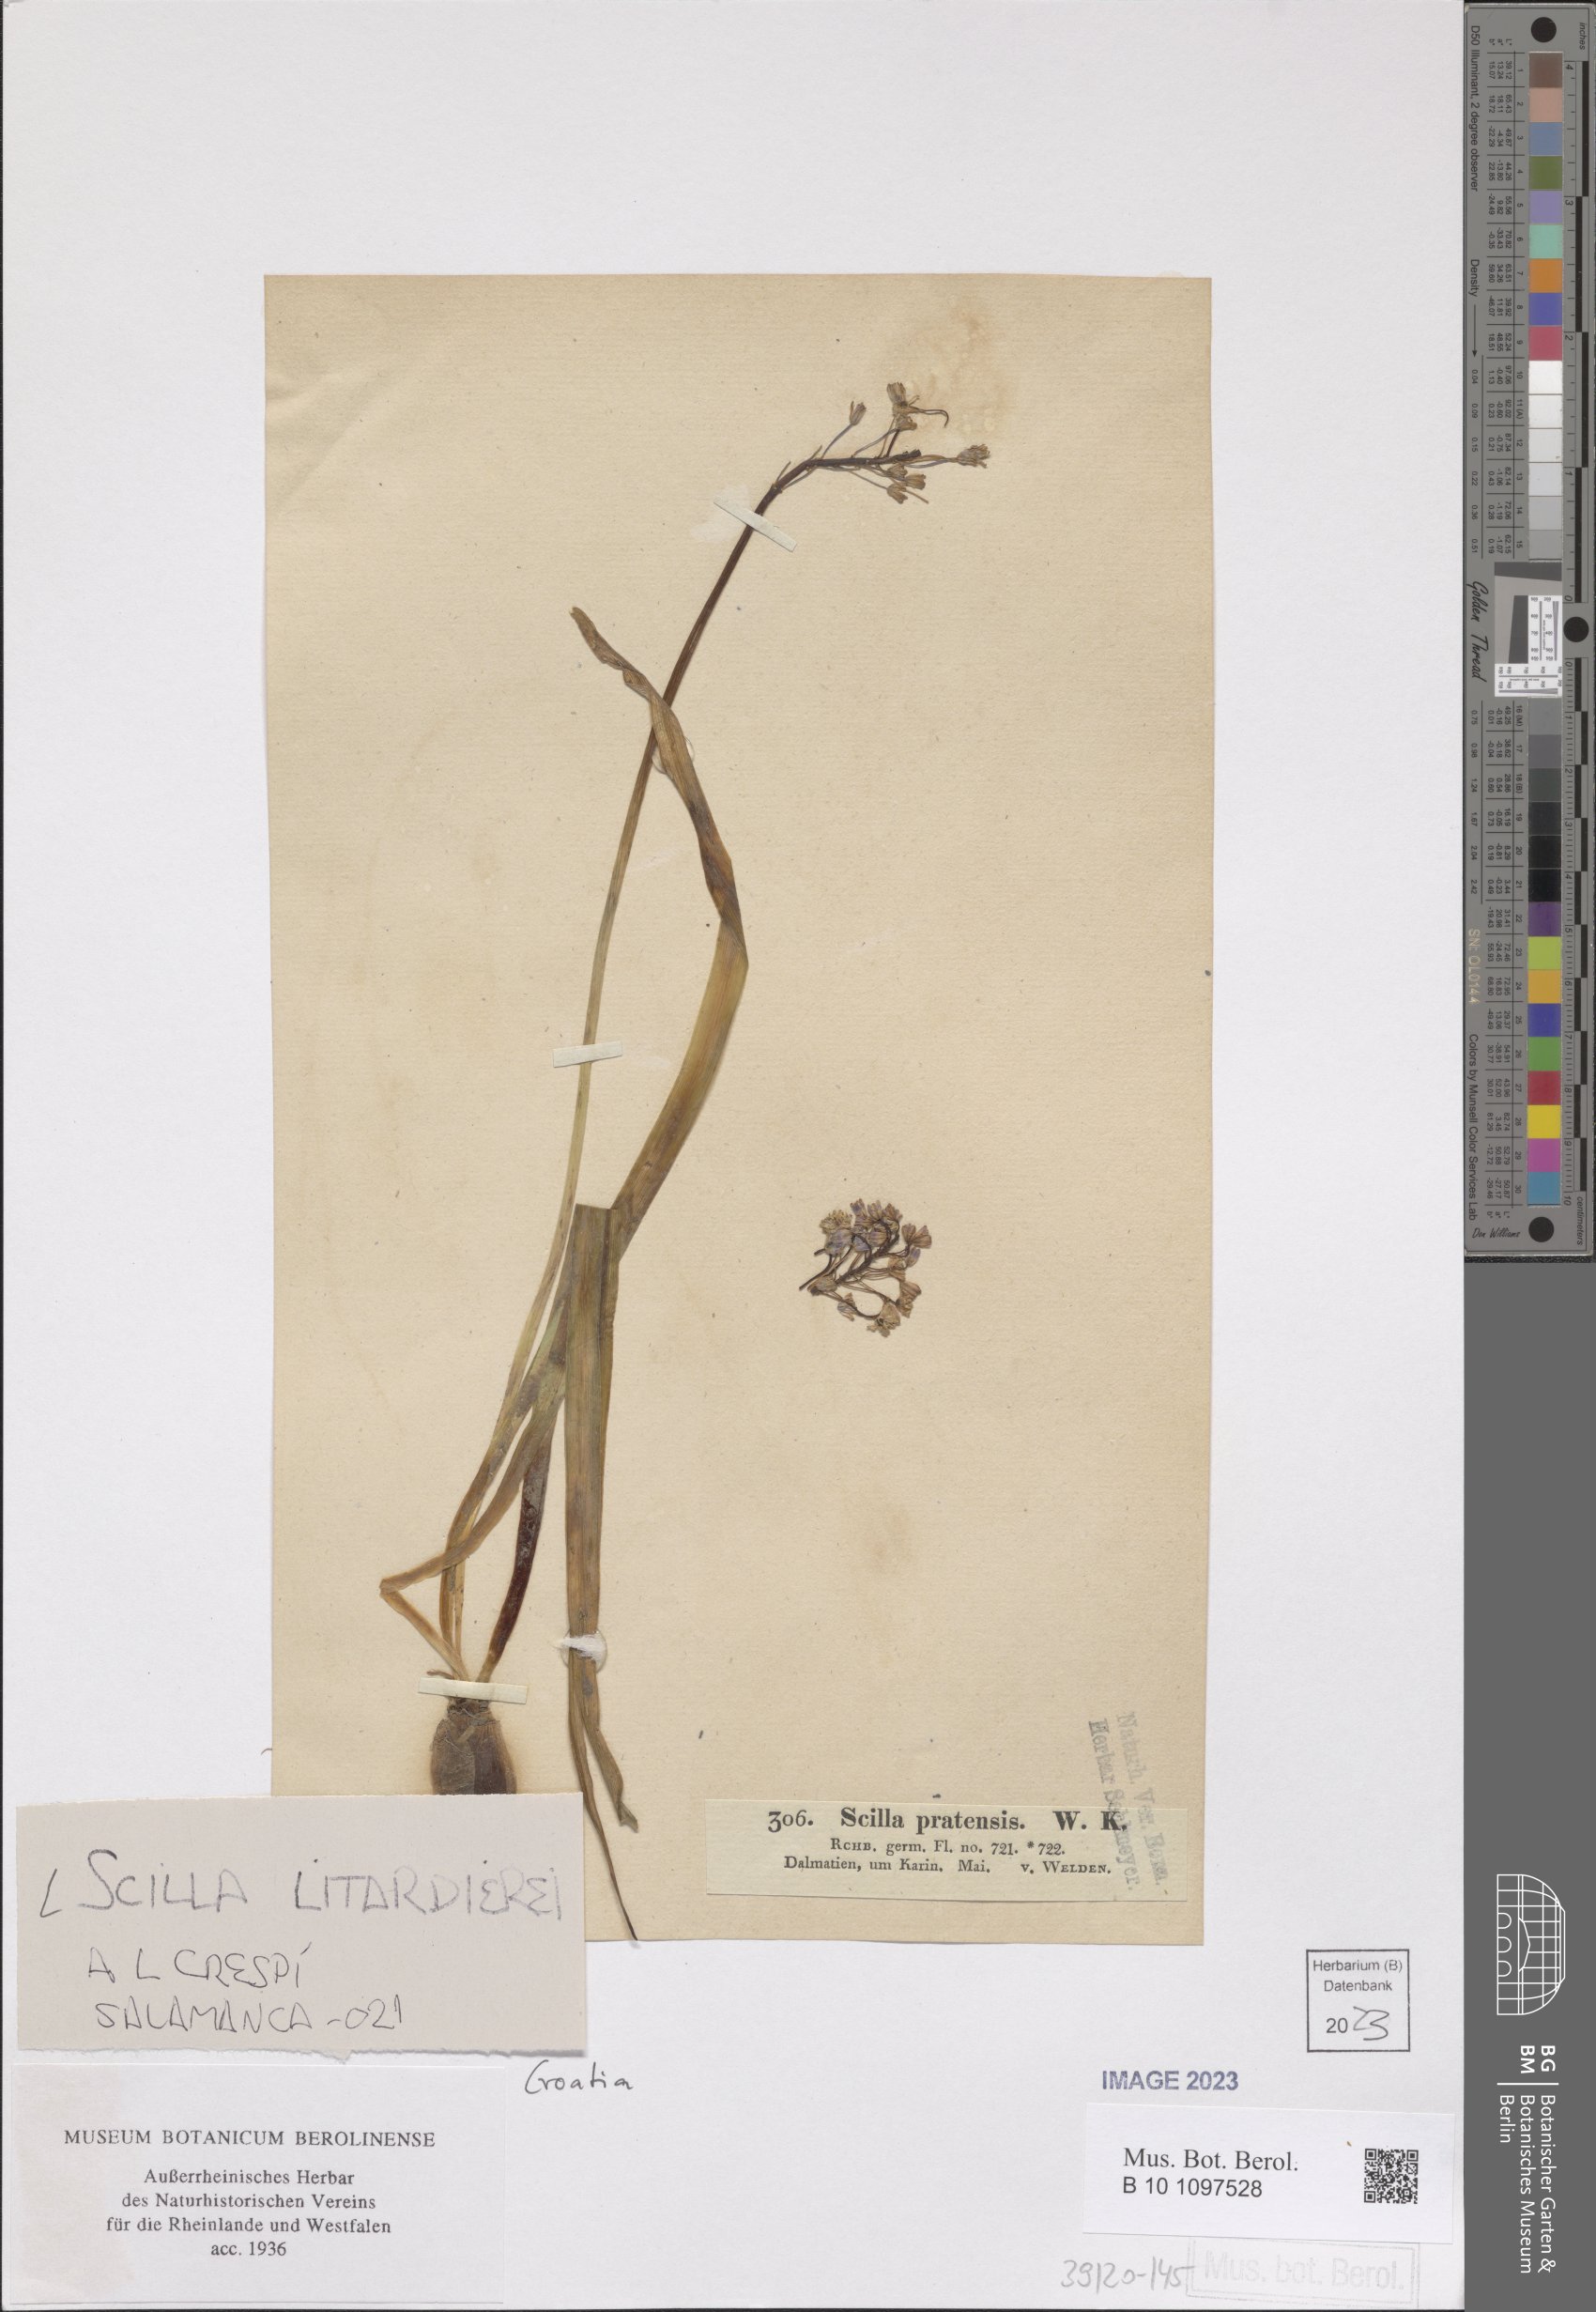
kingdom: Plantae
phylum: Tracheophyta
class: Liliopsida
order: Asparagales
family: Asparagaceae
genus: Scilla
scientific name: Scilla litardierei
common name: Amethyst meadow squill
